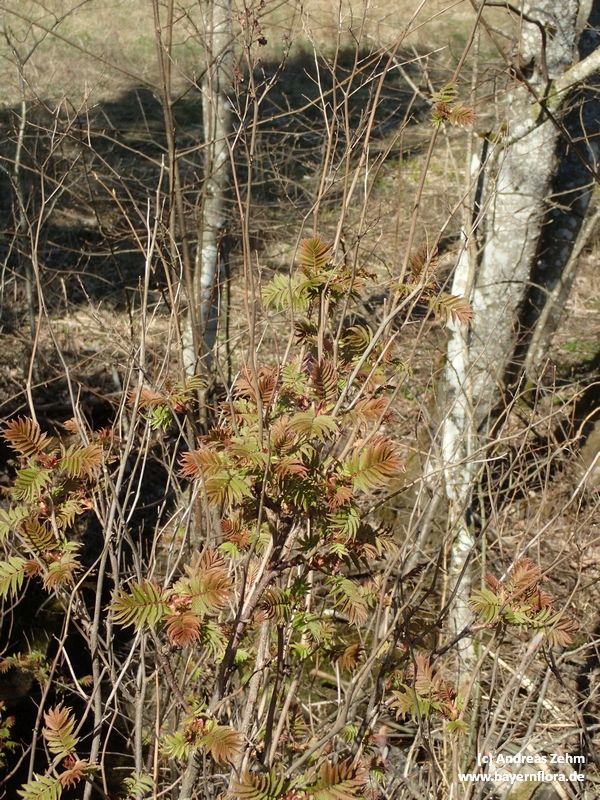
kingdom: Plantae
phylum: Tracheophyta
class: Magnoliopsida
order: Rosales
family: Rosaceae
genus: Sorbaria
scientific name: Sorbaria sorbifolia
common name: False spiraea
